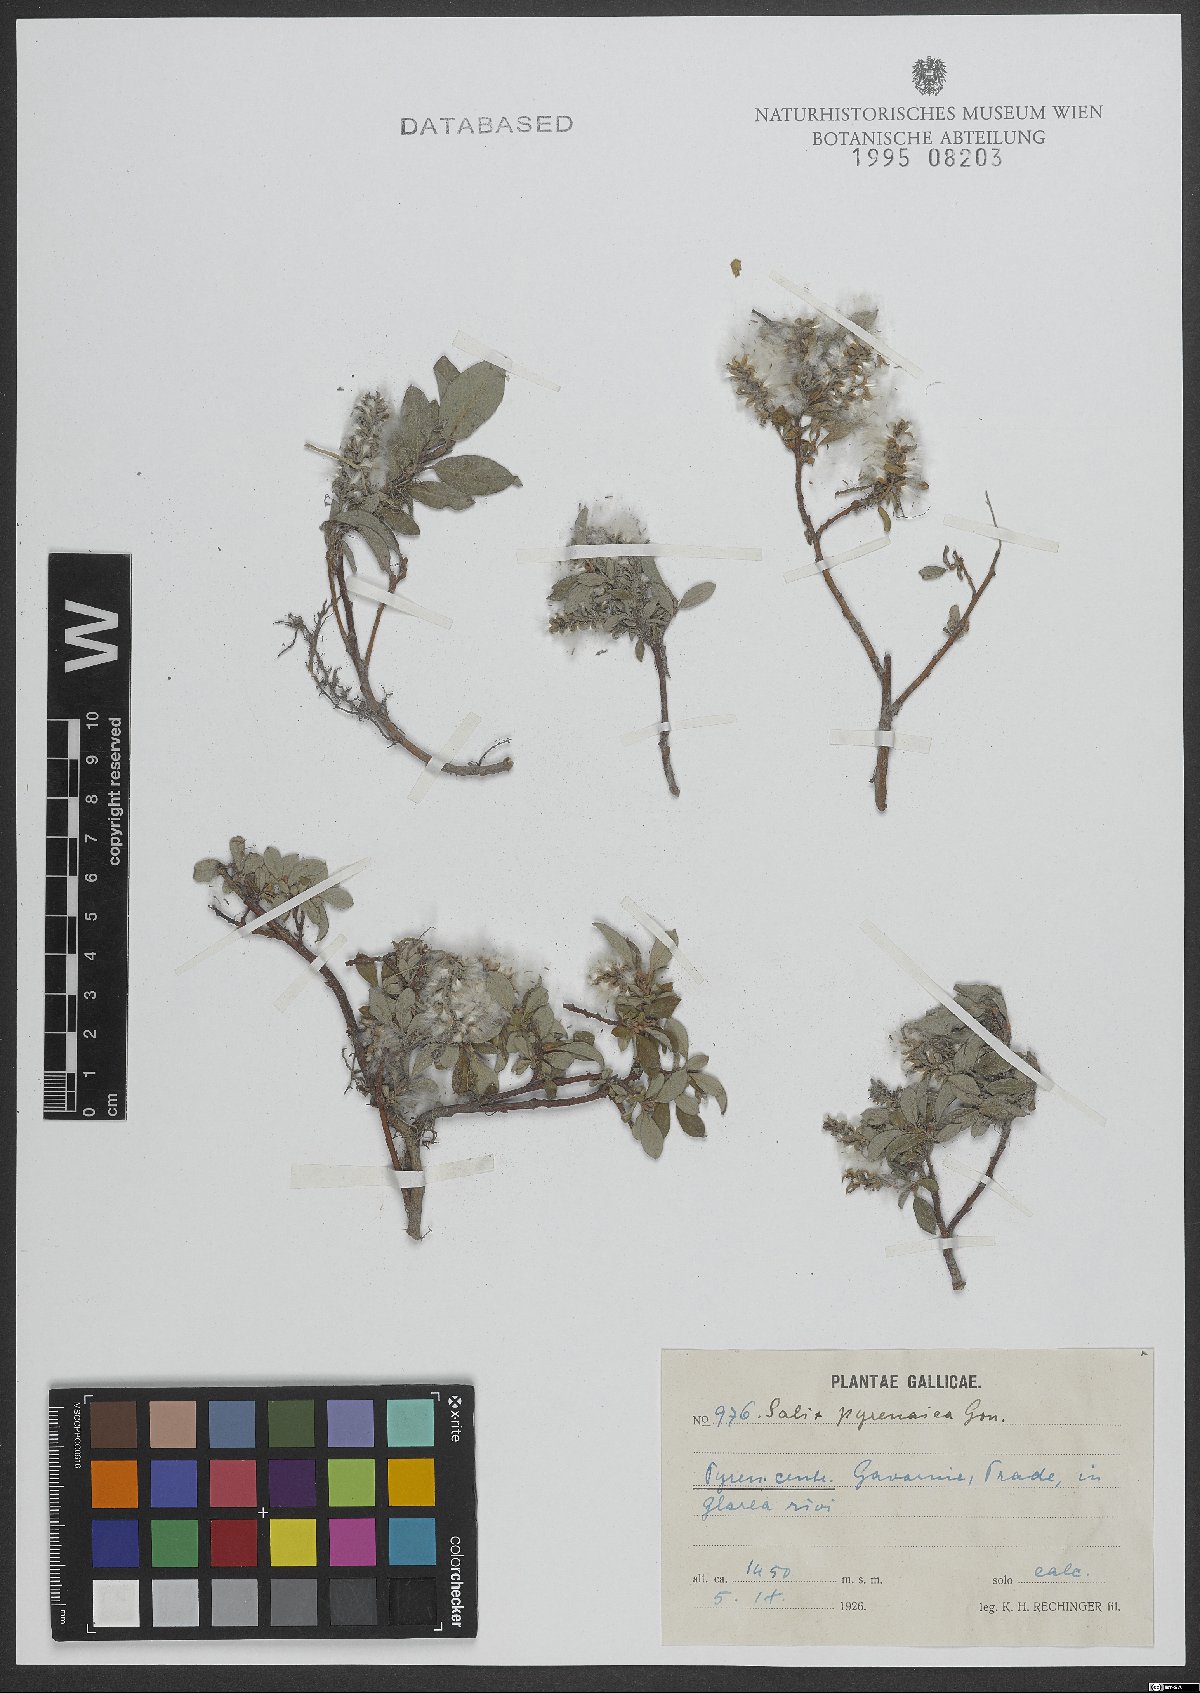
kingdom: Plantae
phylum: Tracheophyta
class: Magnoliopsida
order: Malpighiales
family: Salicaceae
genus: Salix
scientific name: Salix pyrenaica
